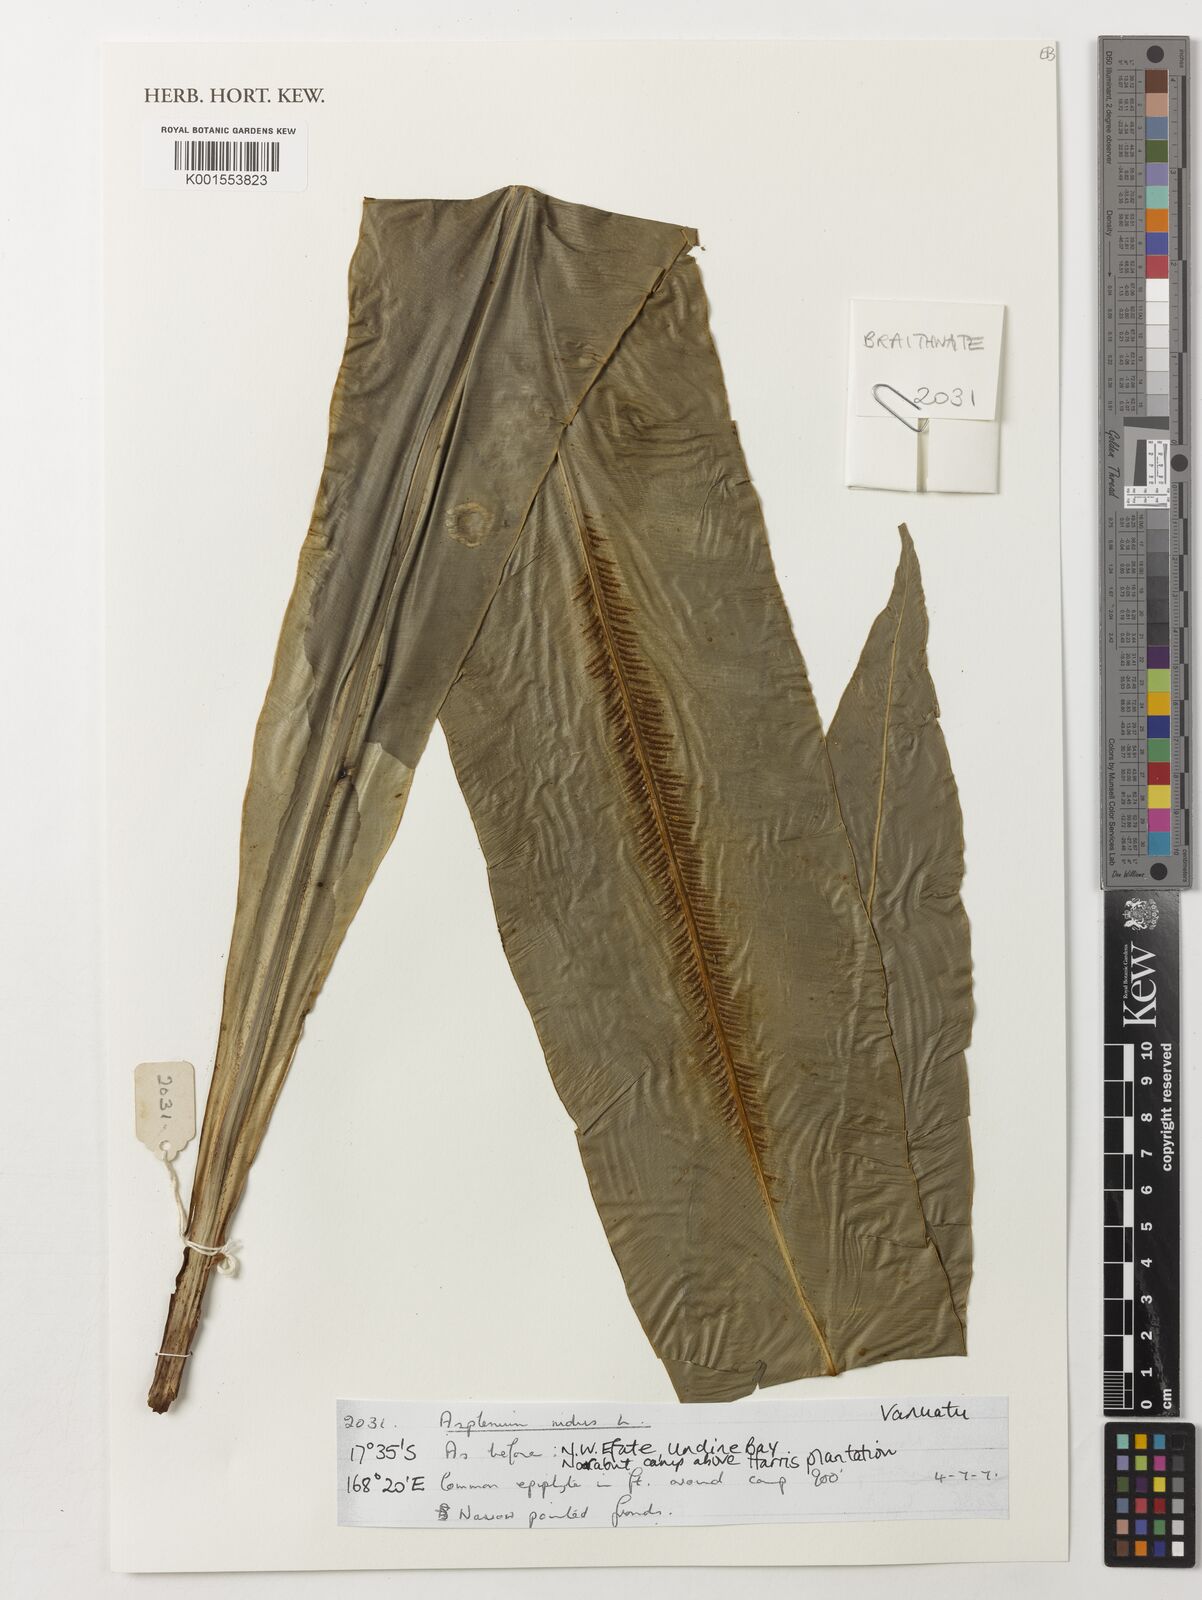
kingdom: Plantae
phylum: Tracheophyta
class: Polypodiopsida
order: Polypodiales
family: Aspleniaceae
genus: Asplenium
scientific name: Asplenium nidus
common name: Bird's-nest fern
